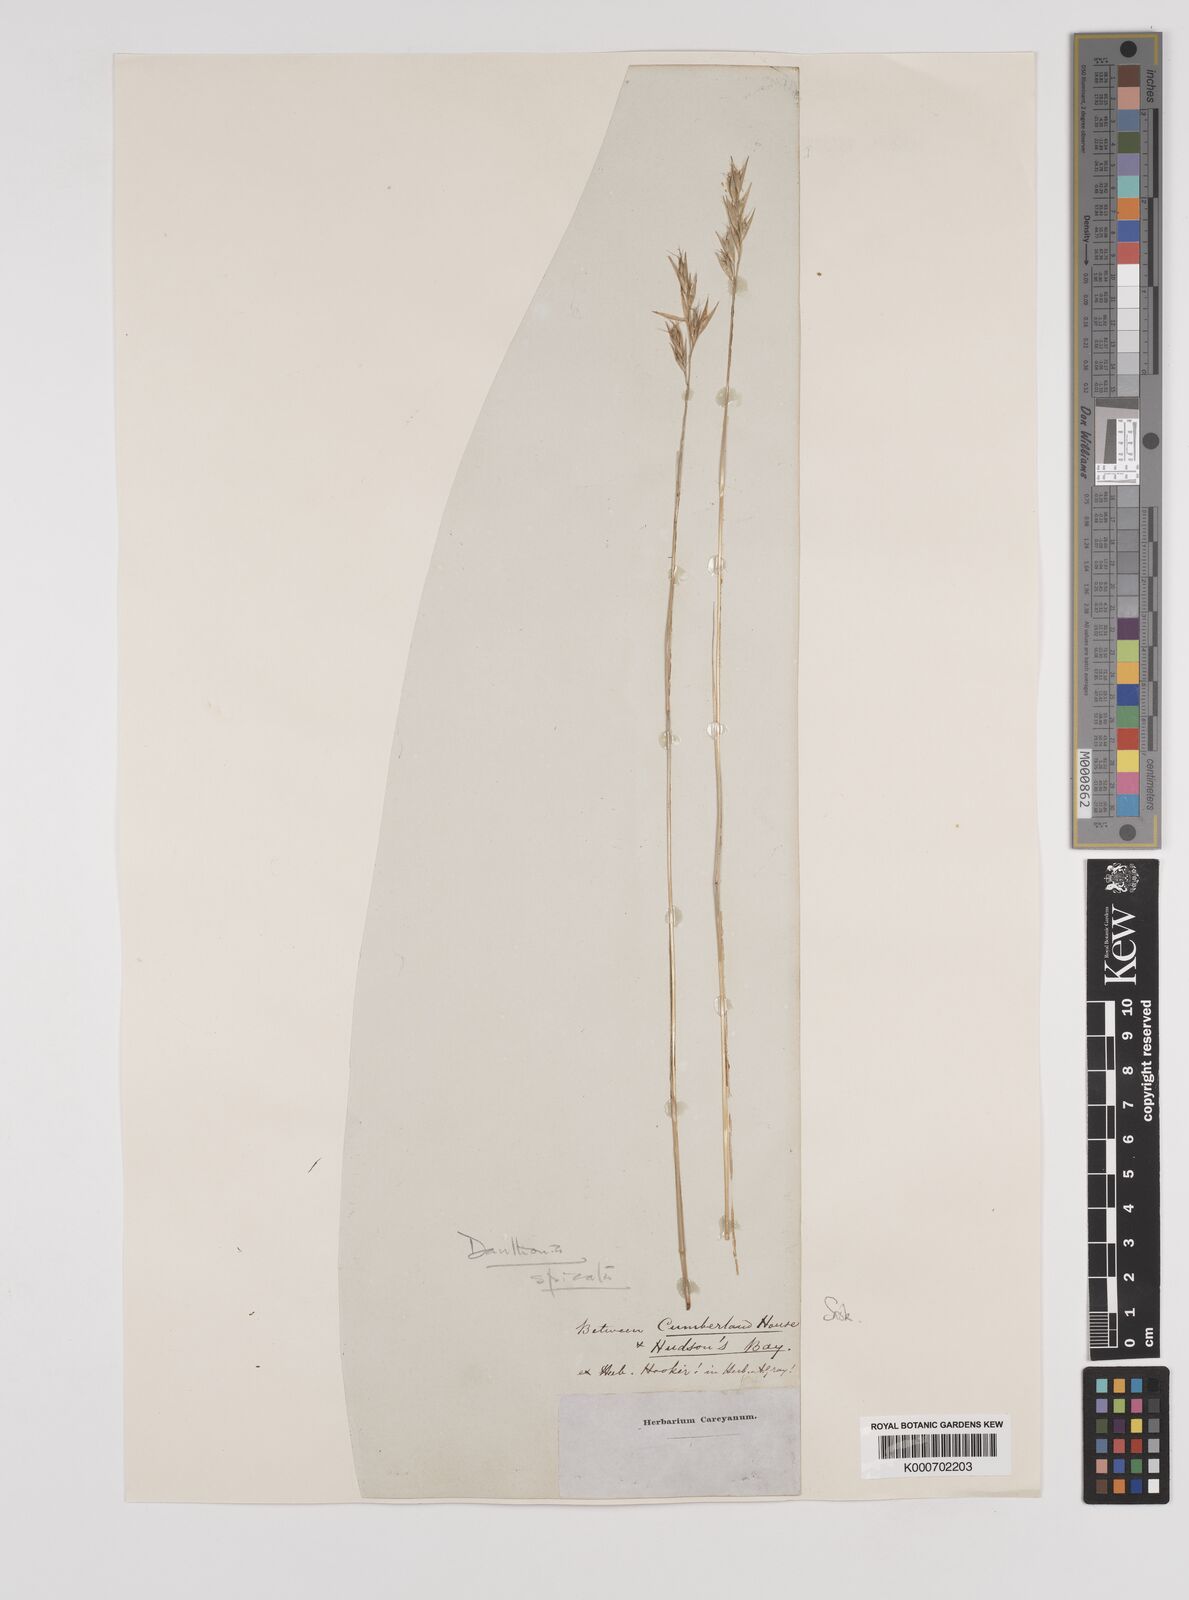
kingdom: Plantae
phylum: Tracheophyta
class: Liliopsida
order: Poales
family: Poaceae
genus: Danthonia
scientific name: Danthonia spicata
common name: Common wild oatgrass
